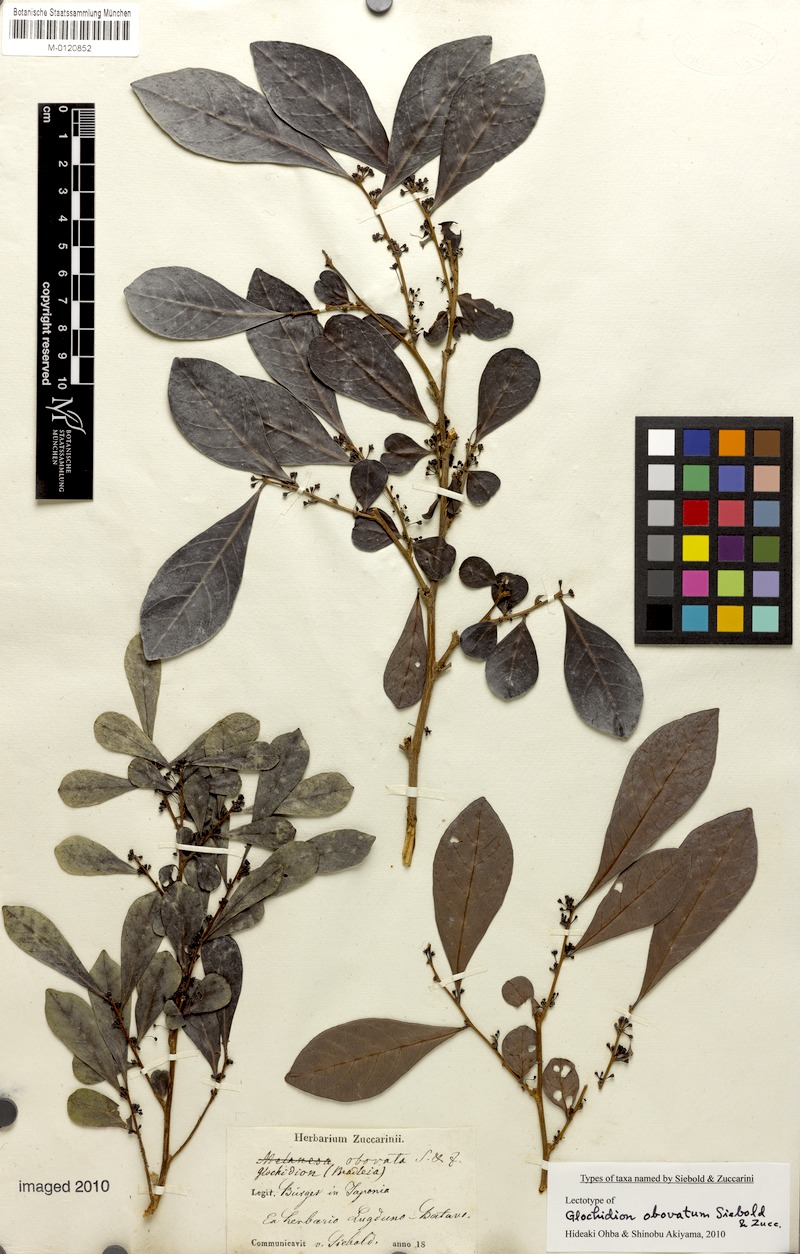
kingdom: Plantae
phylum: Tracheophyta
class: Magnoliopsida
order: Malpighiales
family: Phyllanthaceae
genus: Glochidion
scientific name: Glochidion obovatum
